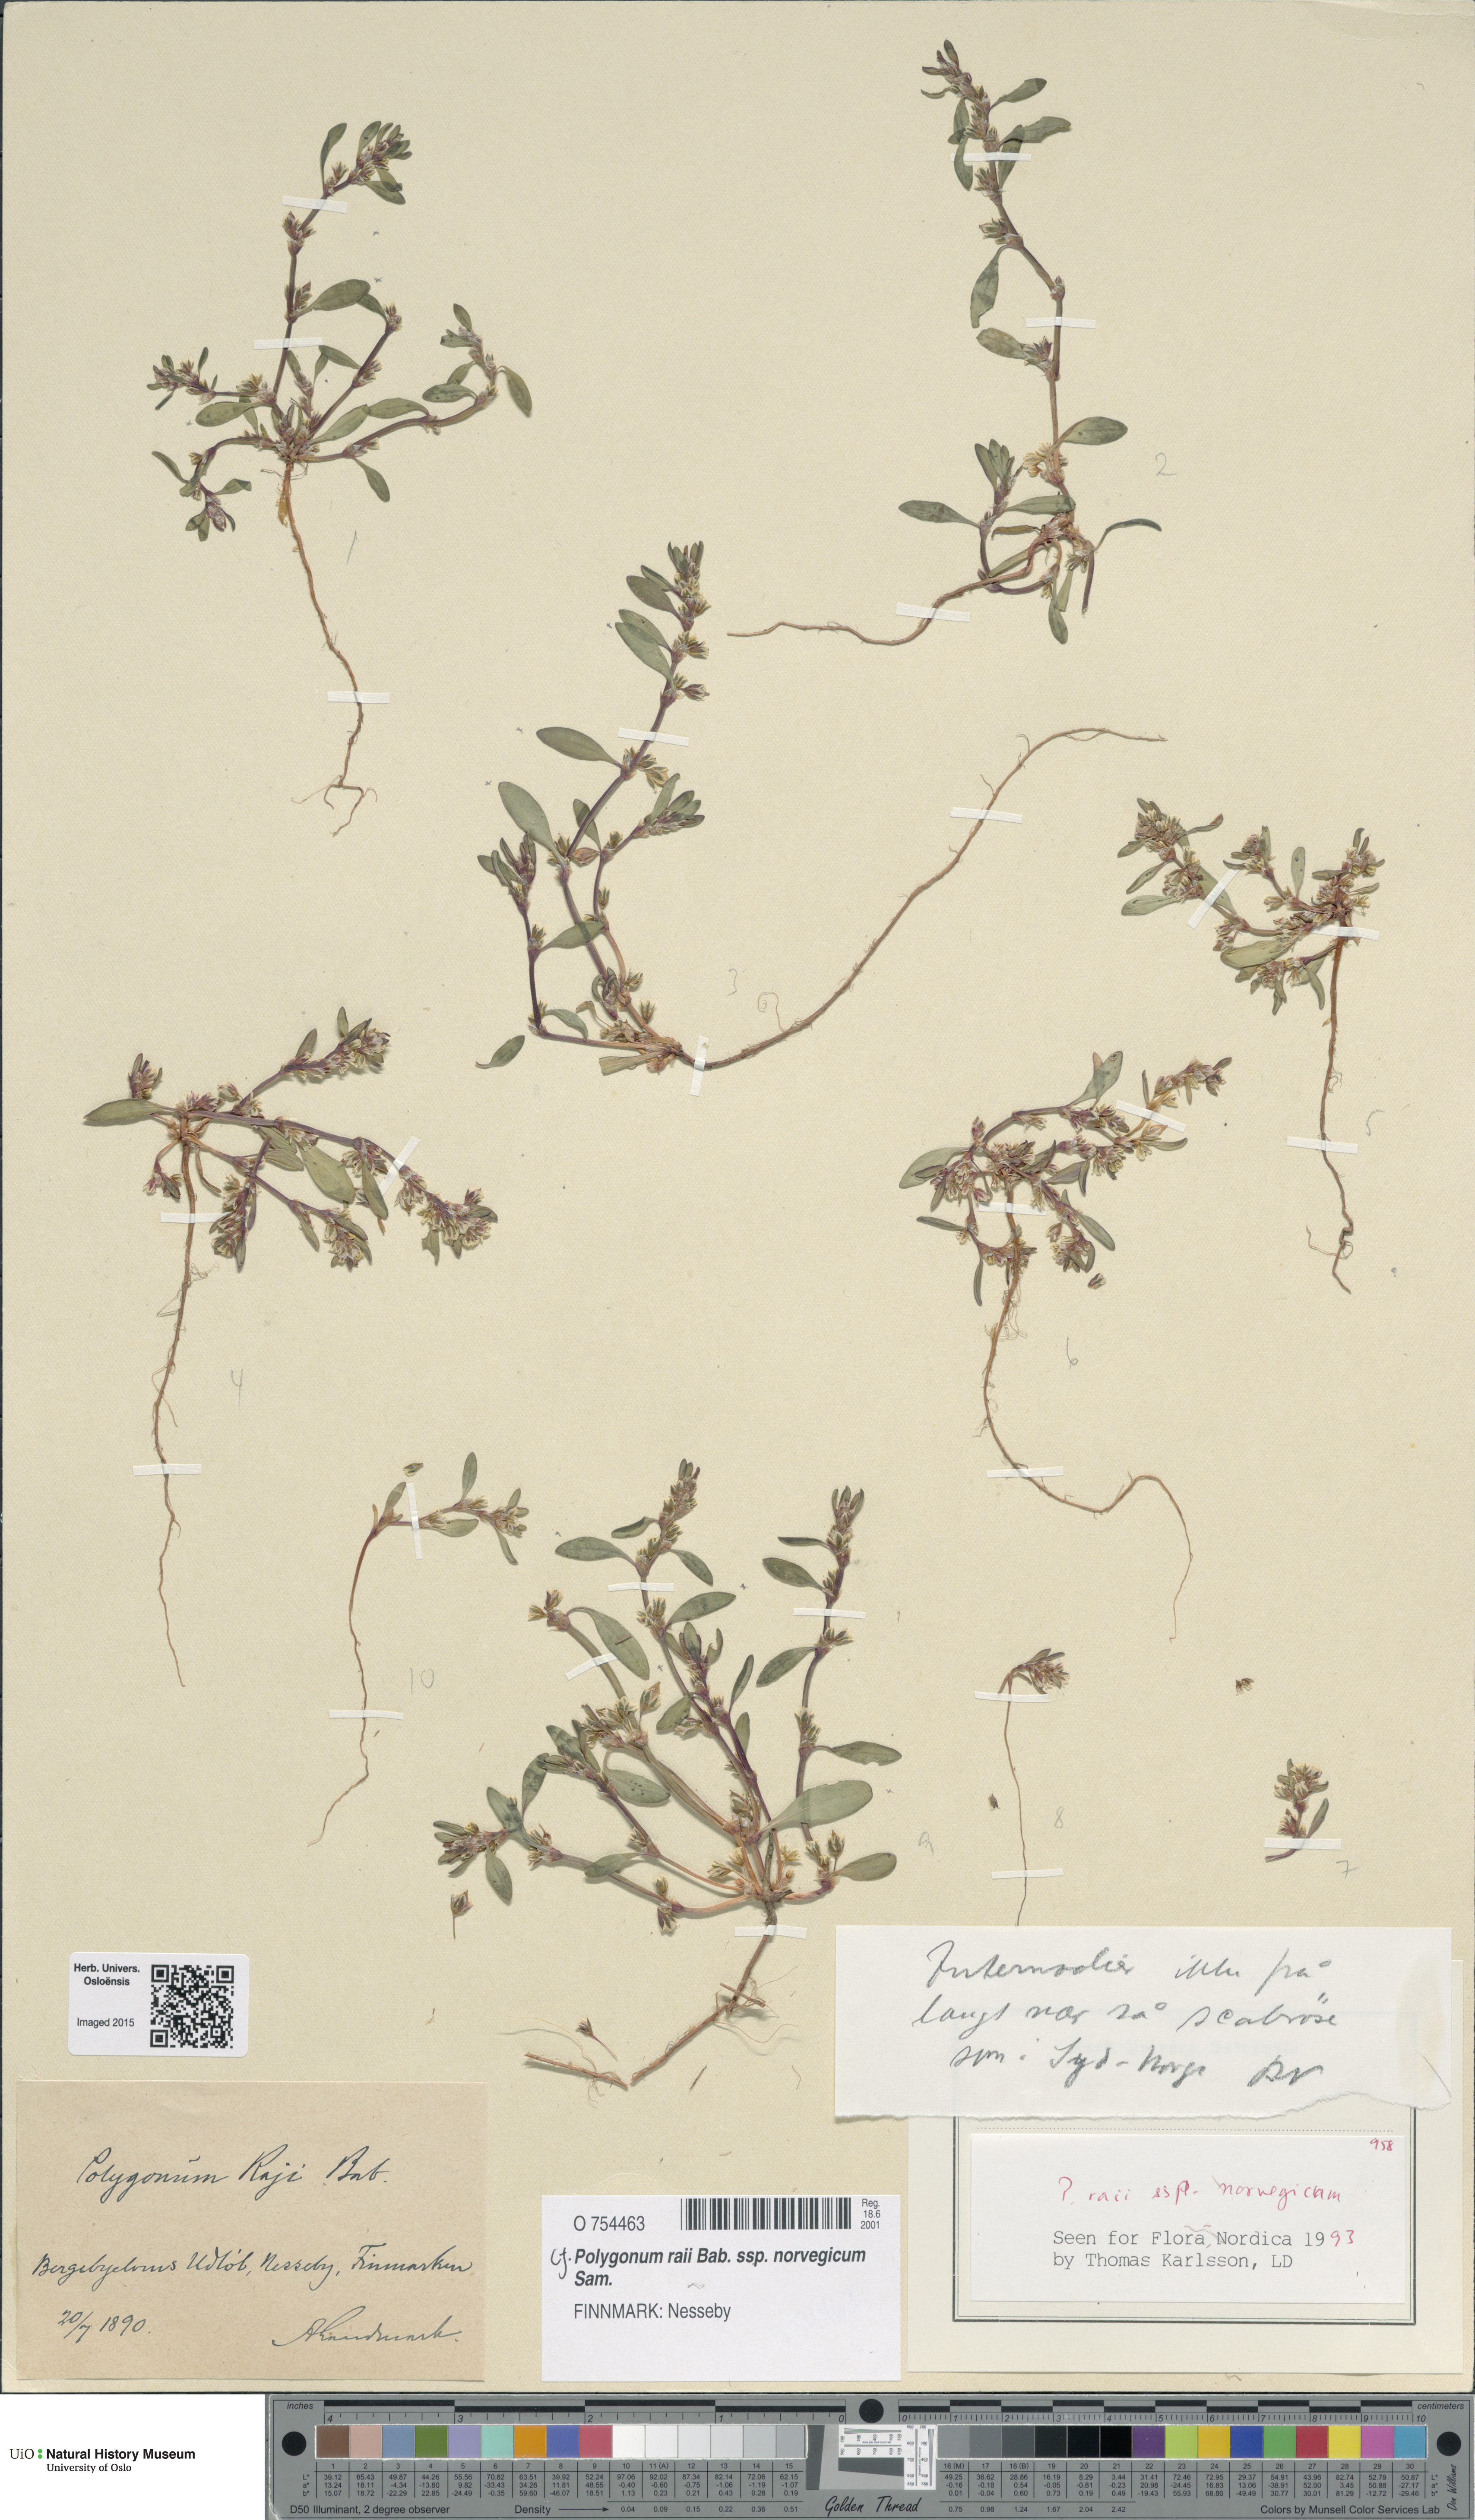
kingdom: Plantae
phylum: Tracheophyta
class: Magnoliopsida
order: Caryophyllales
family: Polygonaceae
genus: Polygonum
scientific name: Polygonum norvegicum
